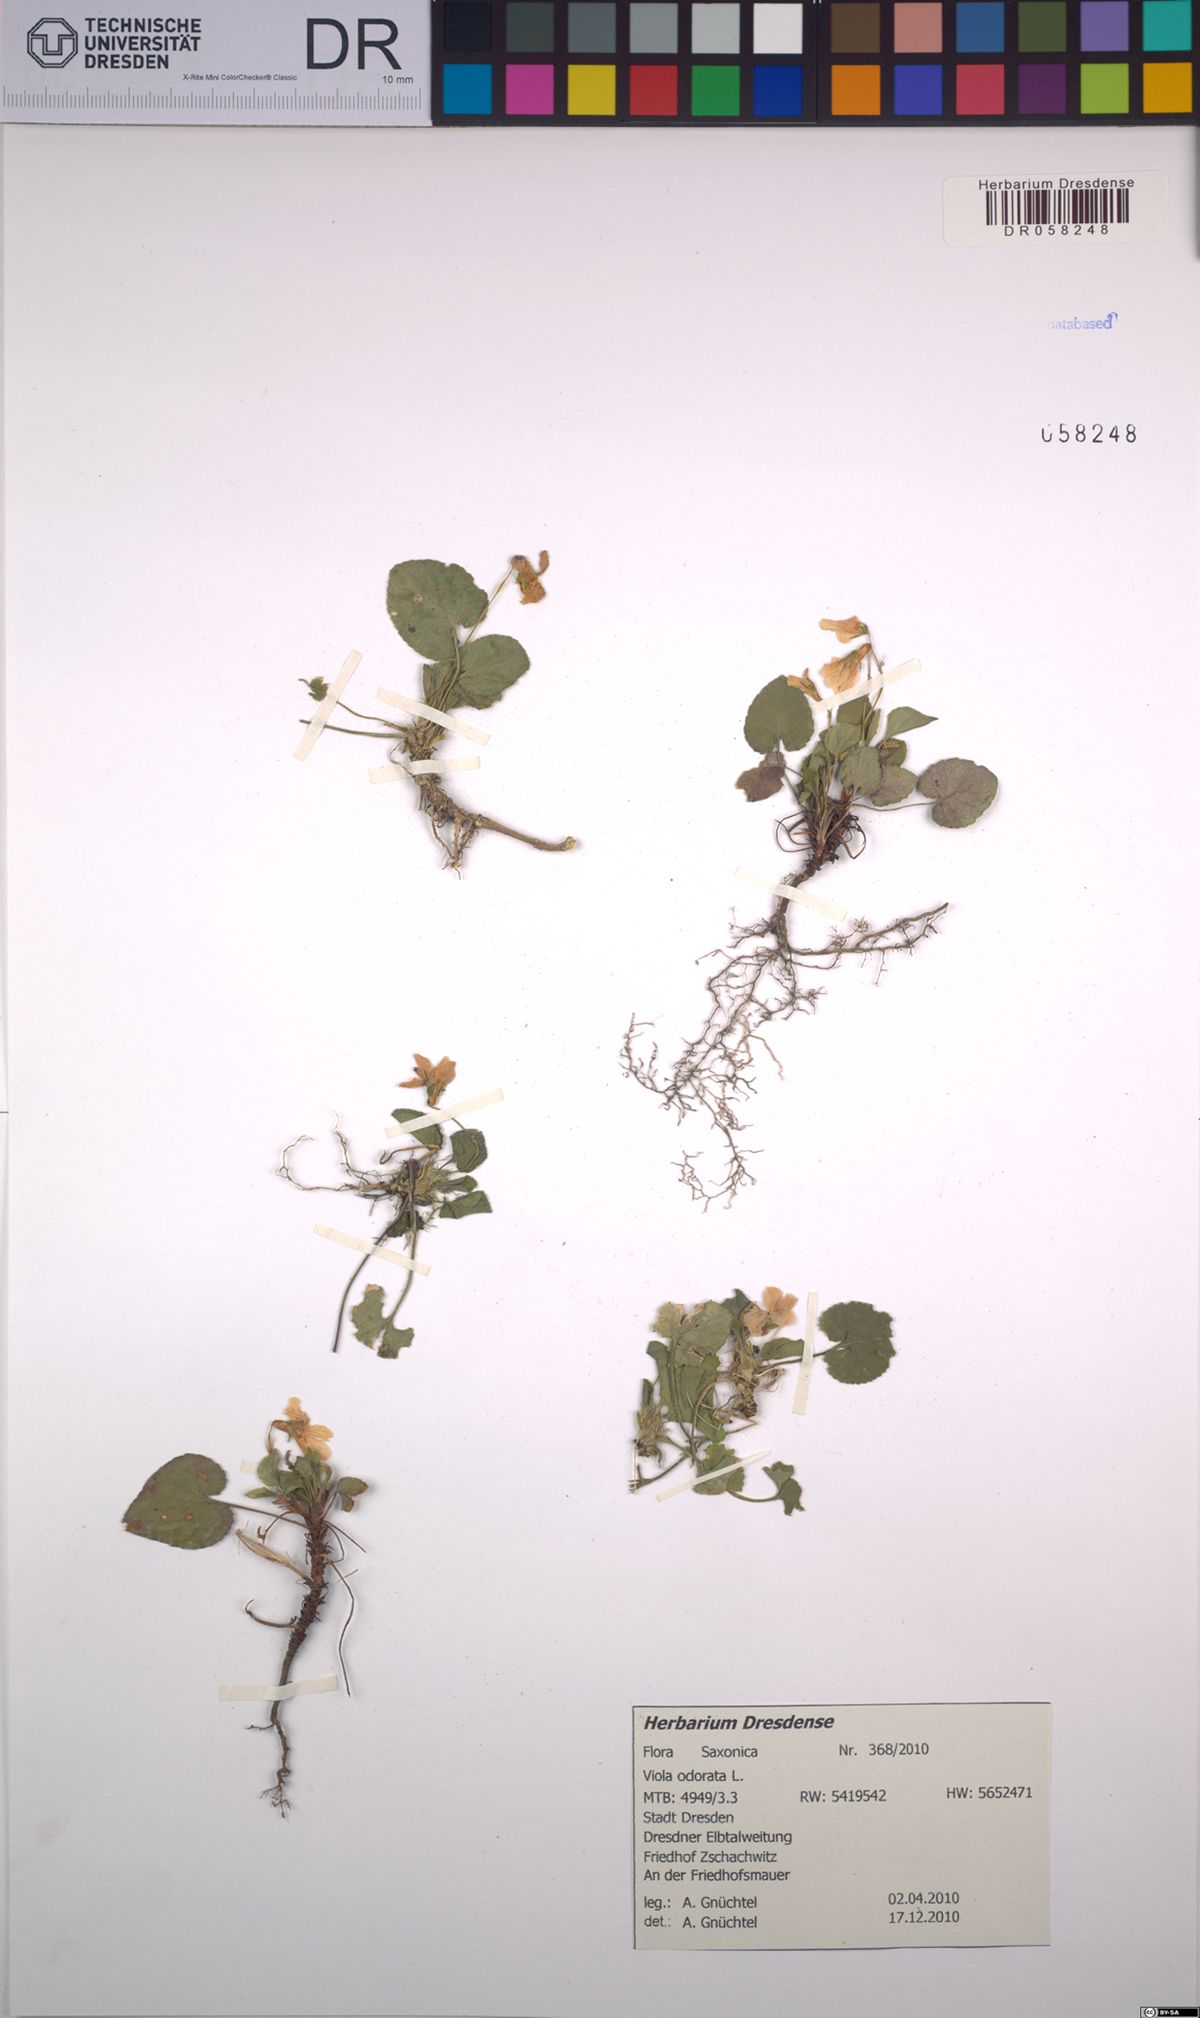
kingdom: Plantae
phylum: Tracheophyta
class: Magnoliopsida
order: Malpighiales
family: Violaceae
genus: Viola
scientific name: Viola odorata
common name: Sweet violet
